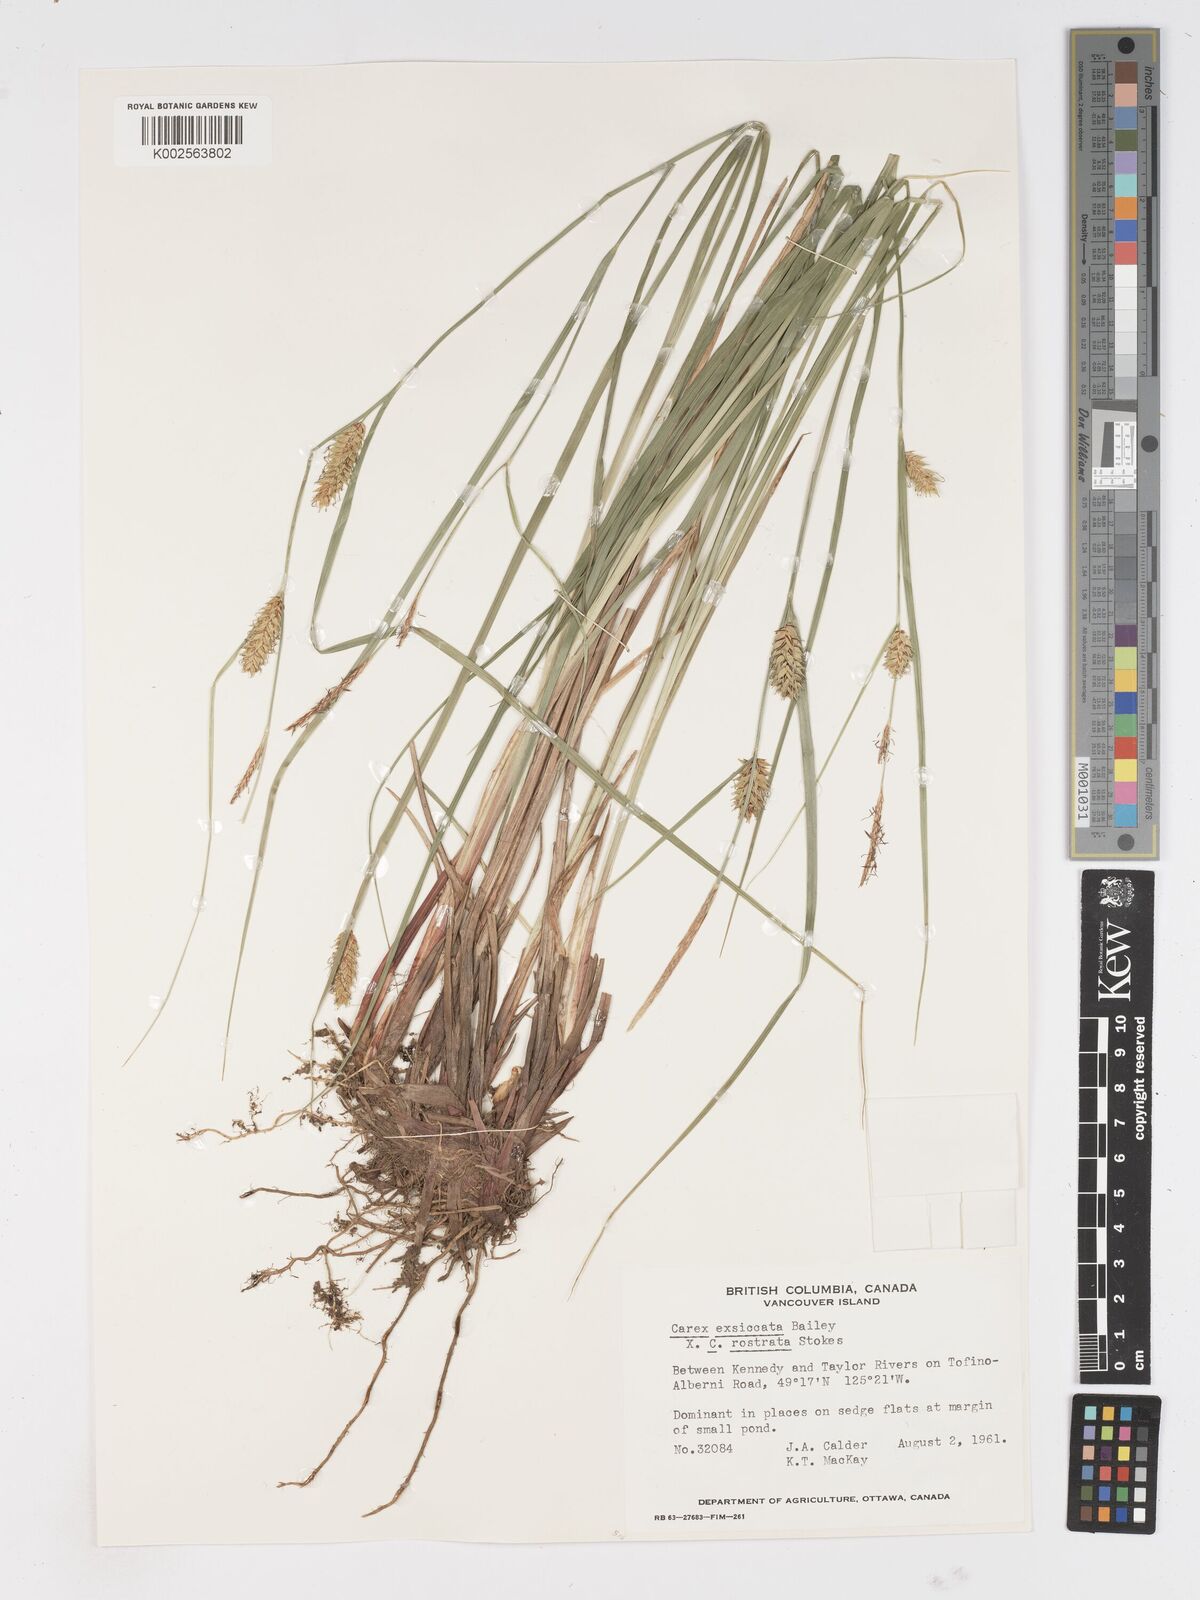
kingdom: Plantae
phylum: Tracheophyta
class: Liliopsida
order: Poales
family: Cyperaceae
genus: Carex
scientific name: Carex exsiccata
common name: Beaked sedge
